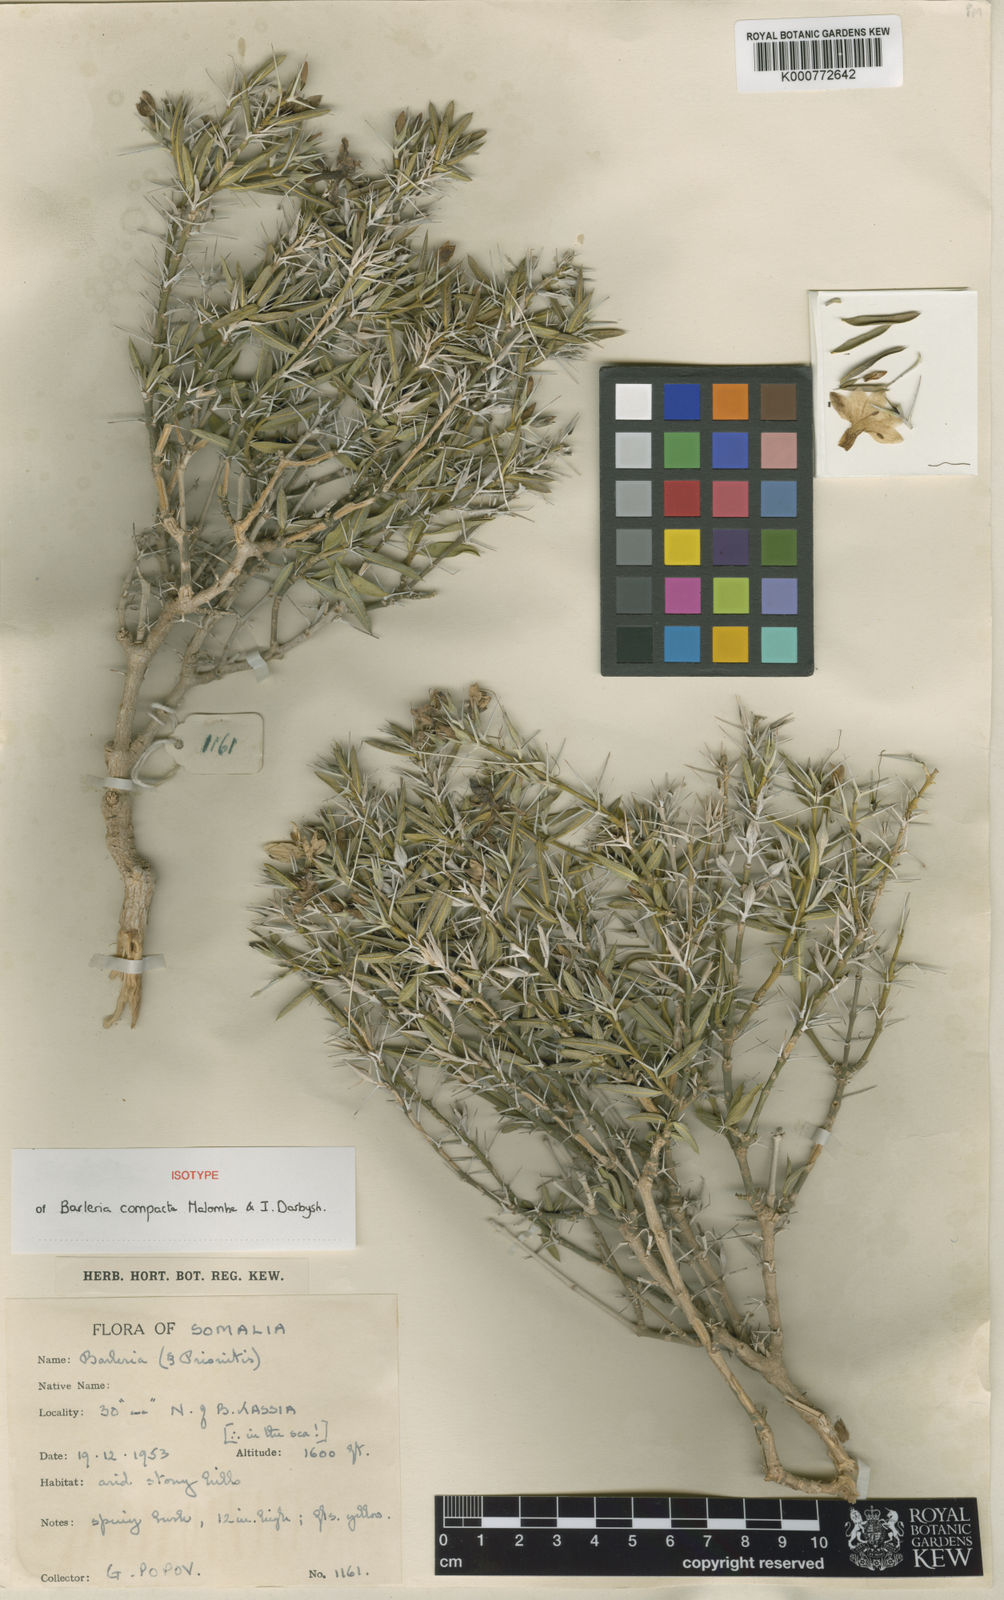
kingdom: Plantae
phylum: Tracheophyta
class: Magnoliopsida
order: Lamiales
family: Acanthaceae
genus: Barleria
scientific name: Barleria compacta
